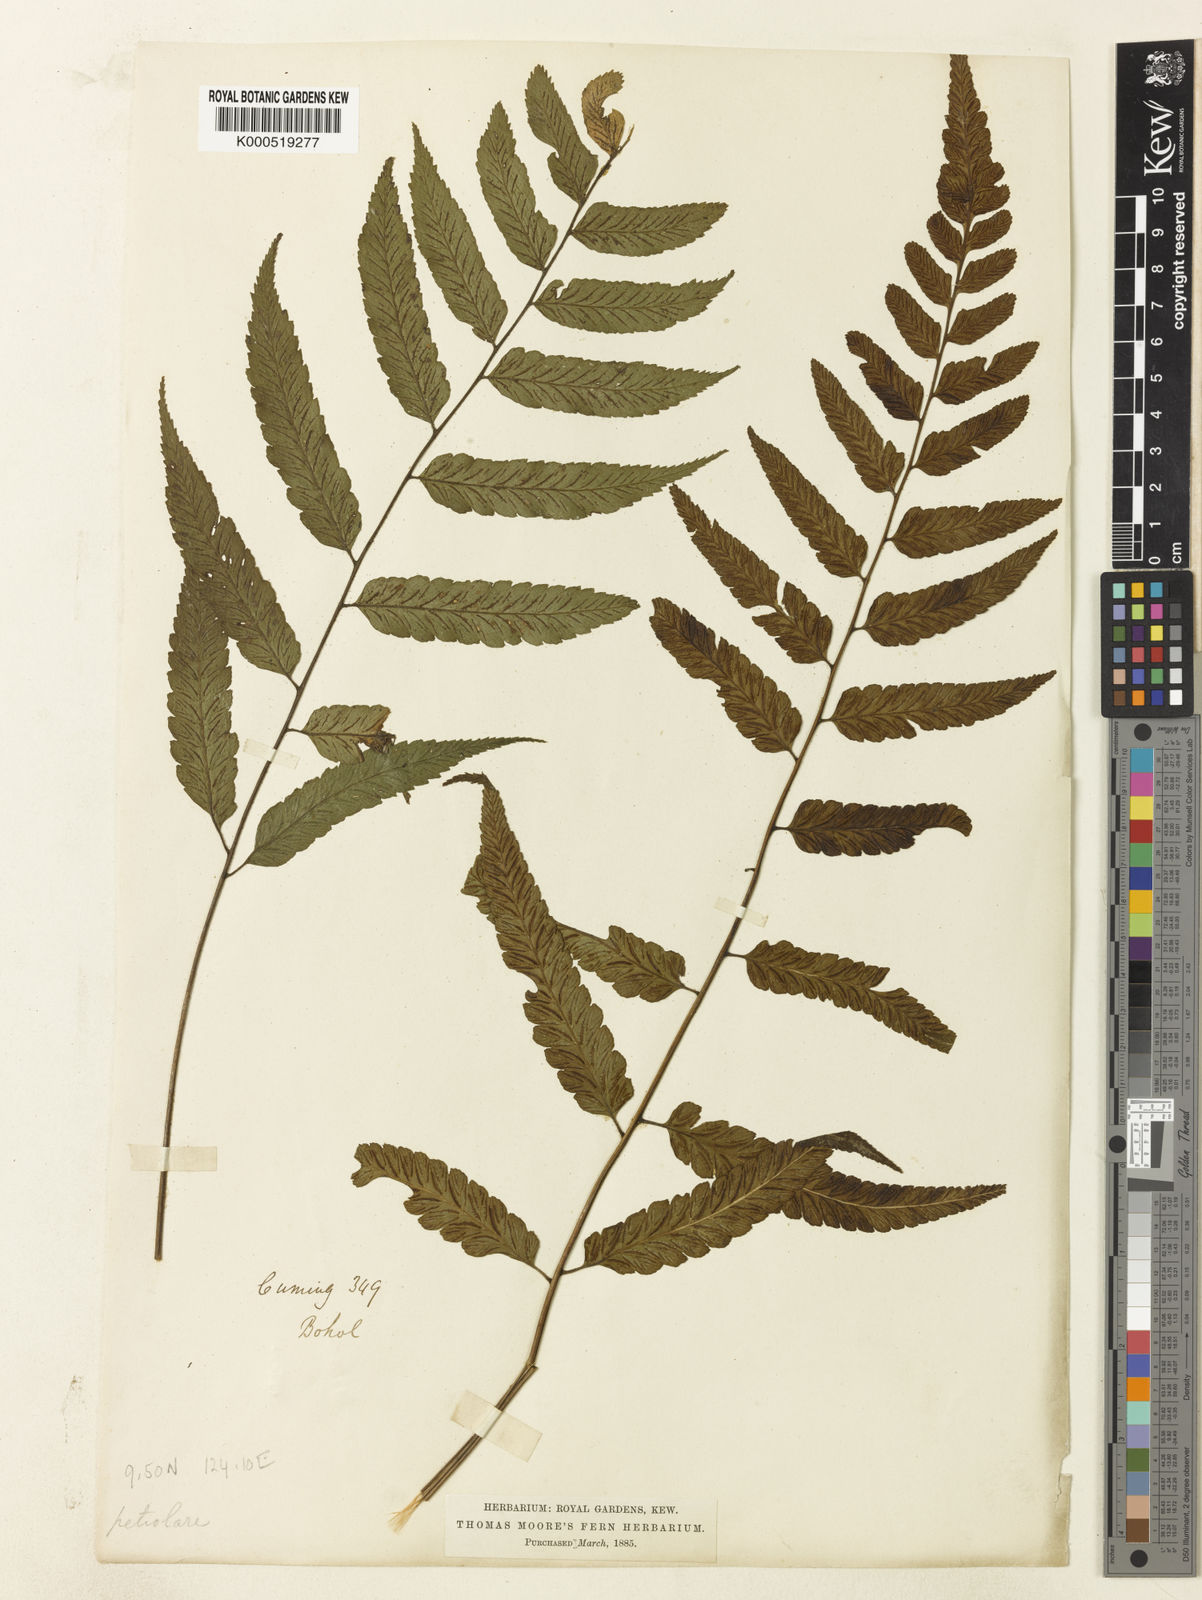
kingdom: Plantae
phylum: Tracheophyta
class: Polypodiopsida
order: Polypodiales
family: Athyriaceae
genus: Diplazium
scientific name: Diplazium petiolare
